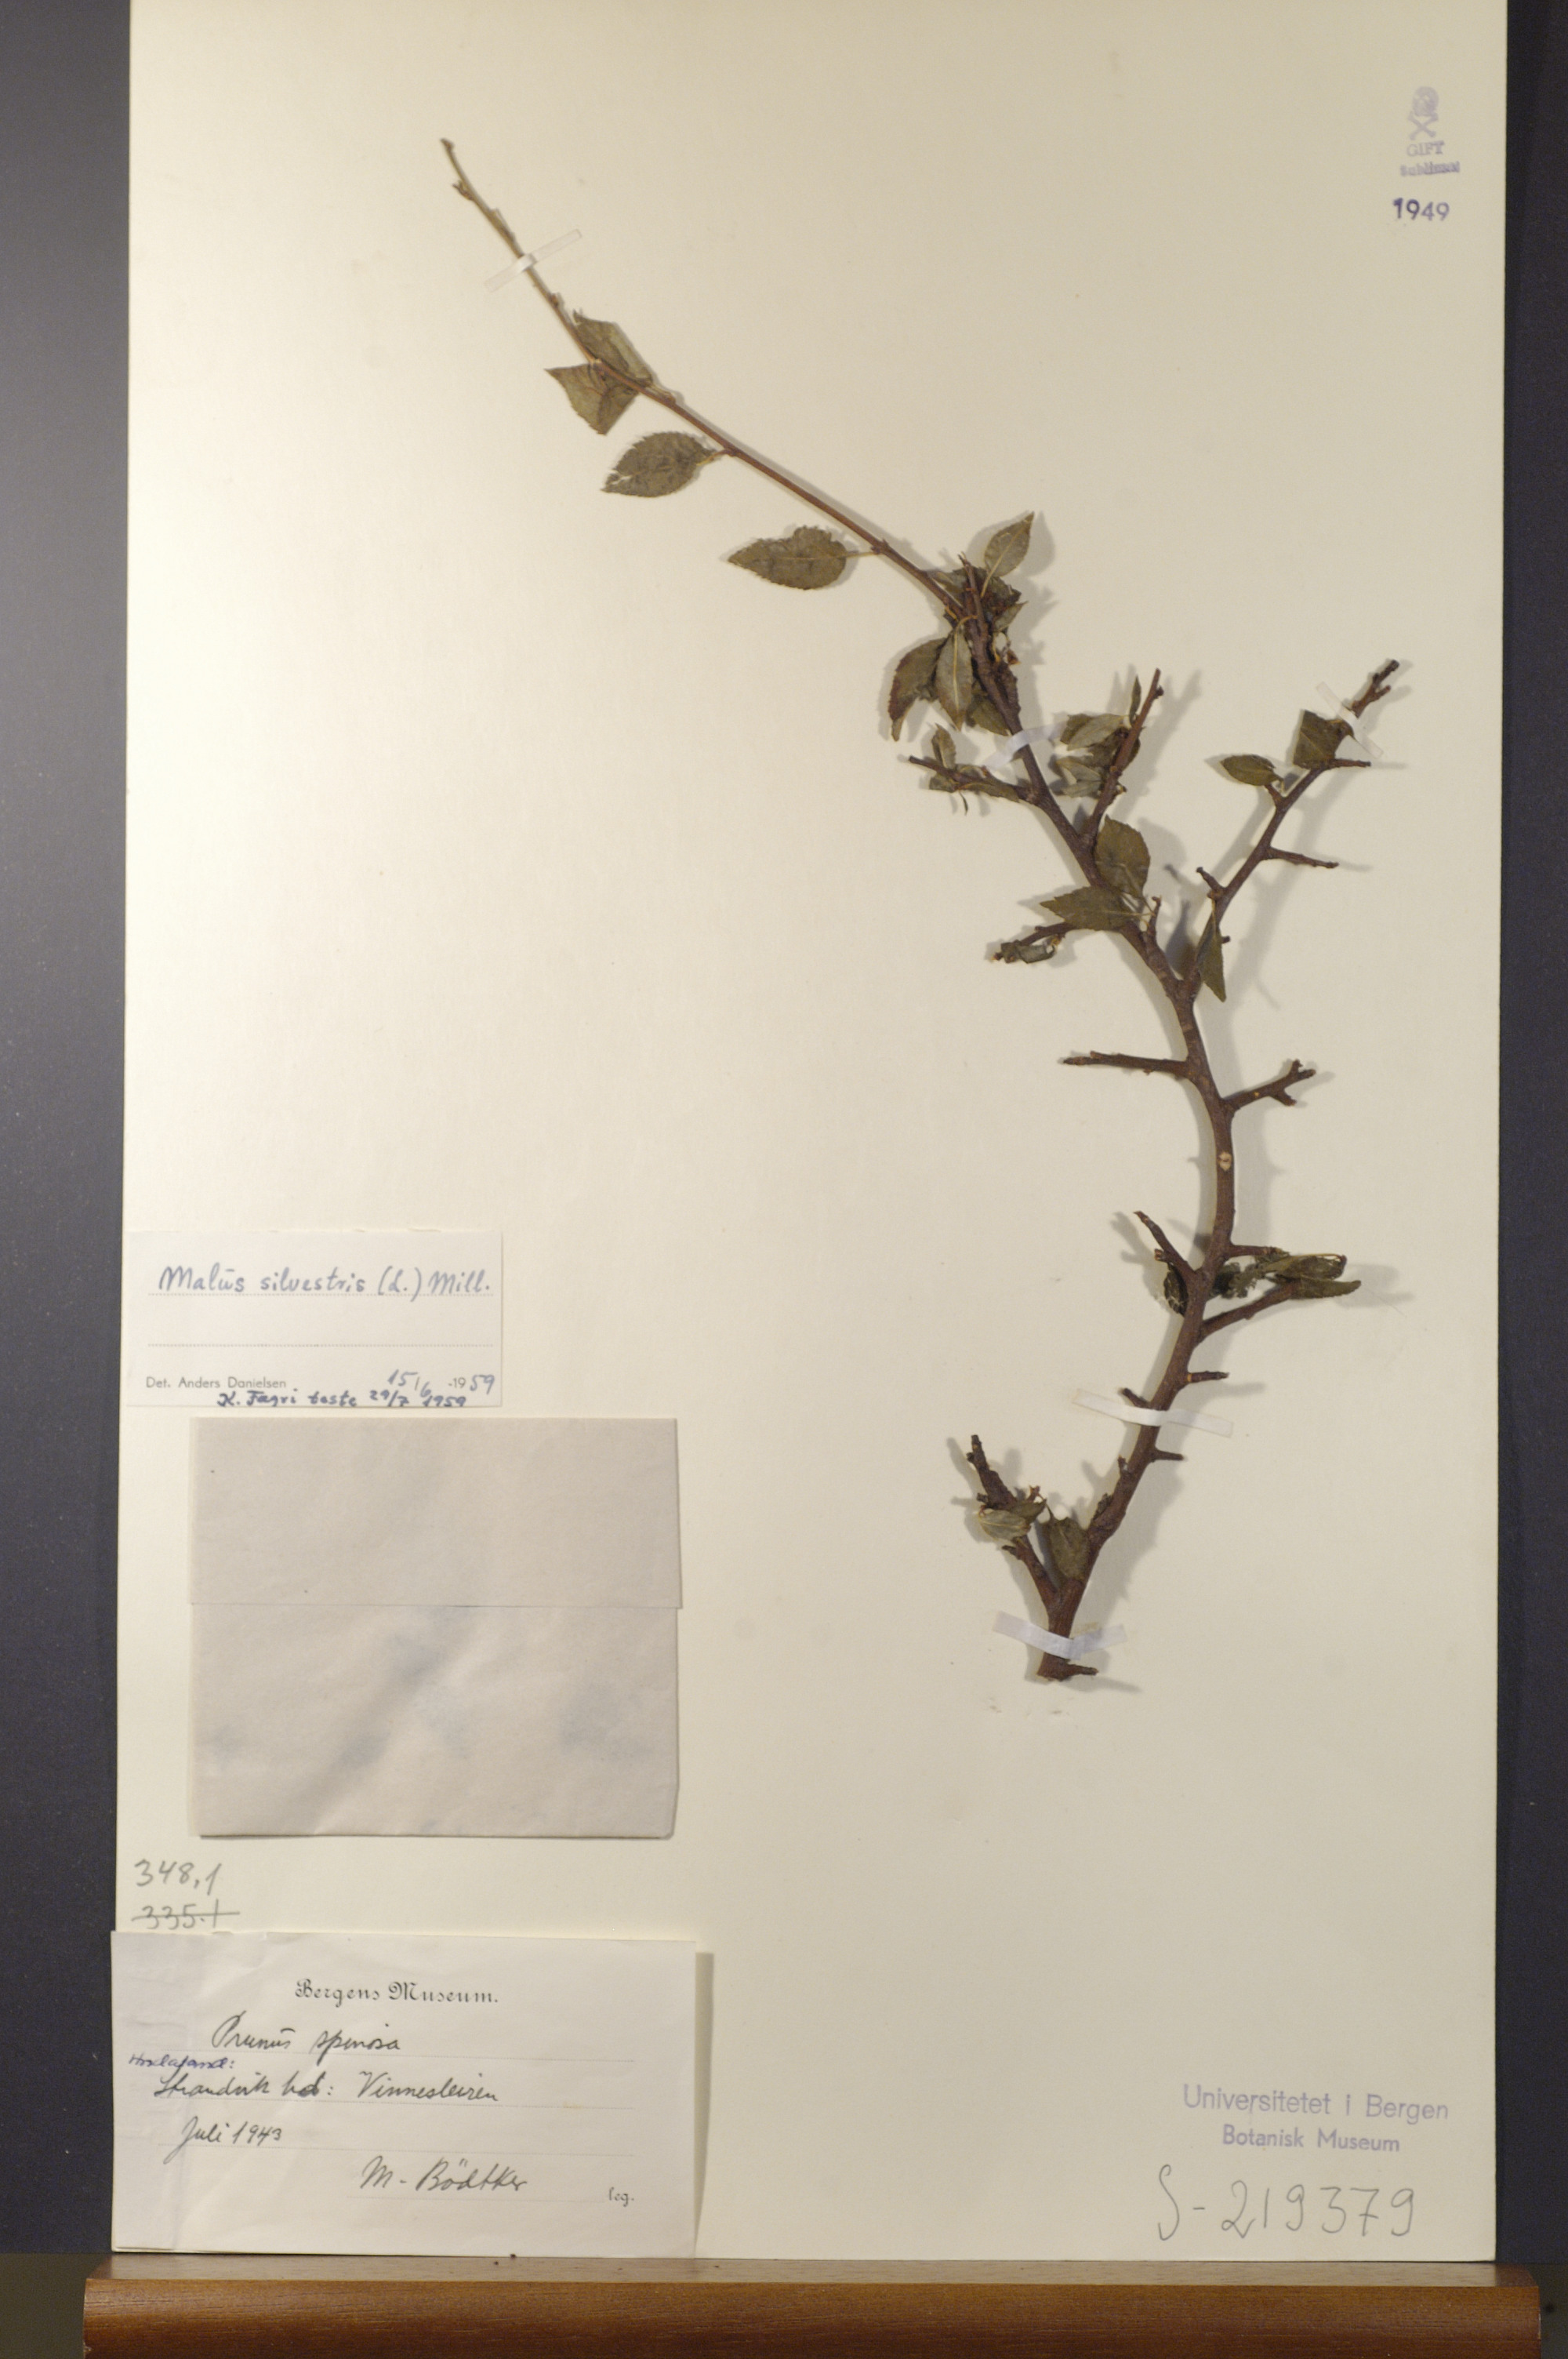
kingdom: Plantae
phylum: Tracheophyta
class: Magnoliopsida
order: Rosales
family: Rosaceae
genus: Malus
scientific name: Malus sylvestris
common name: Crab apple
